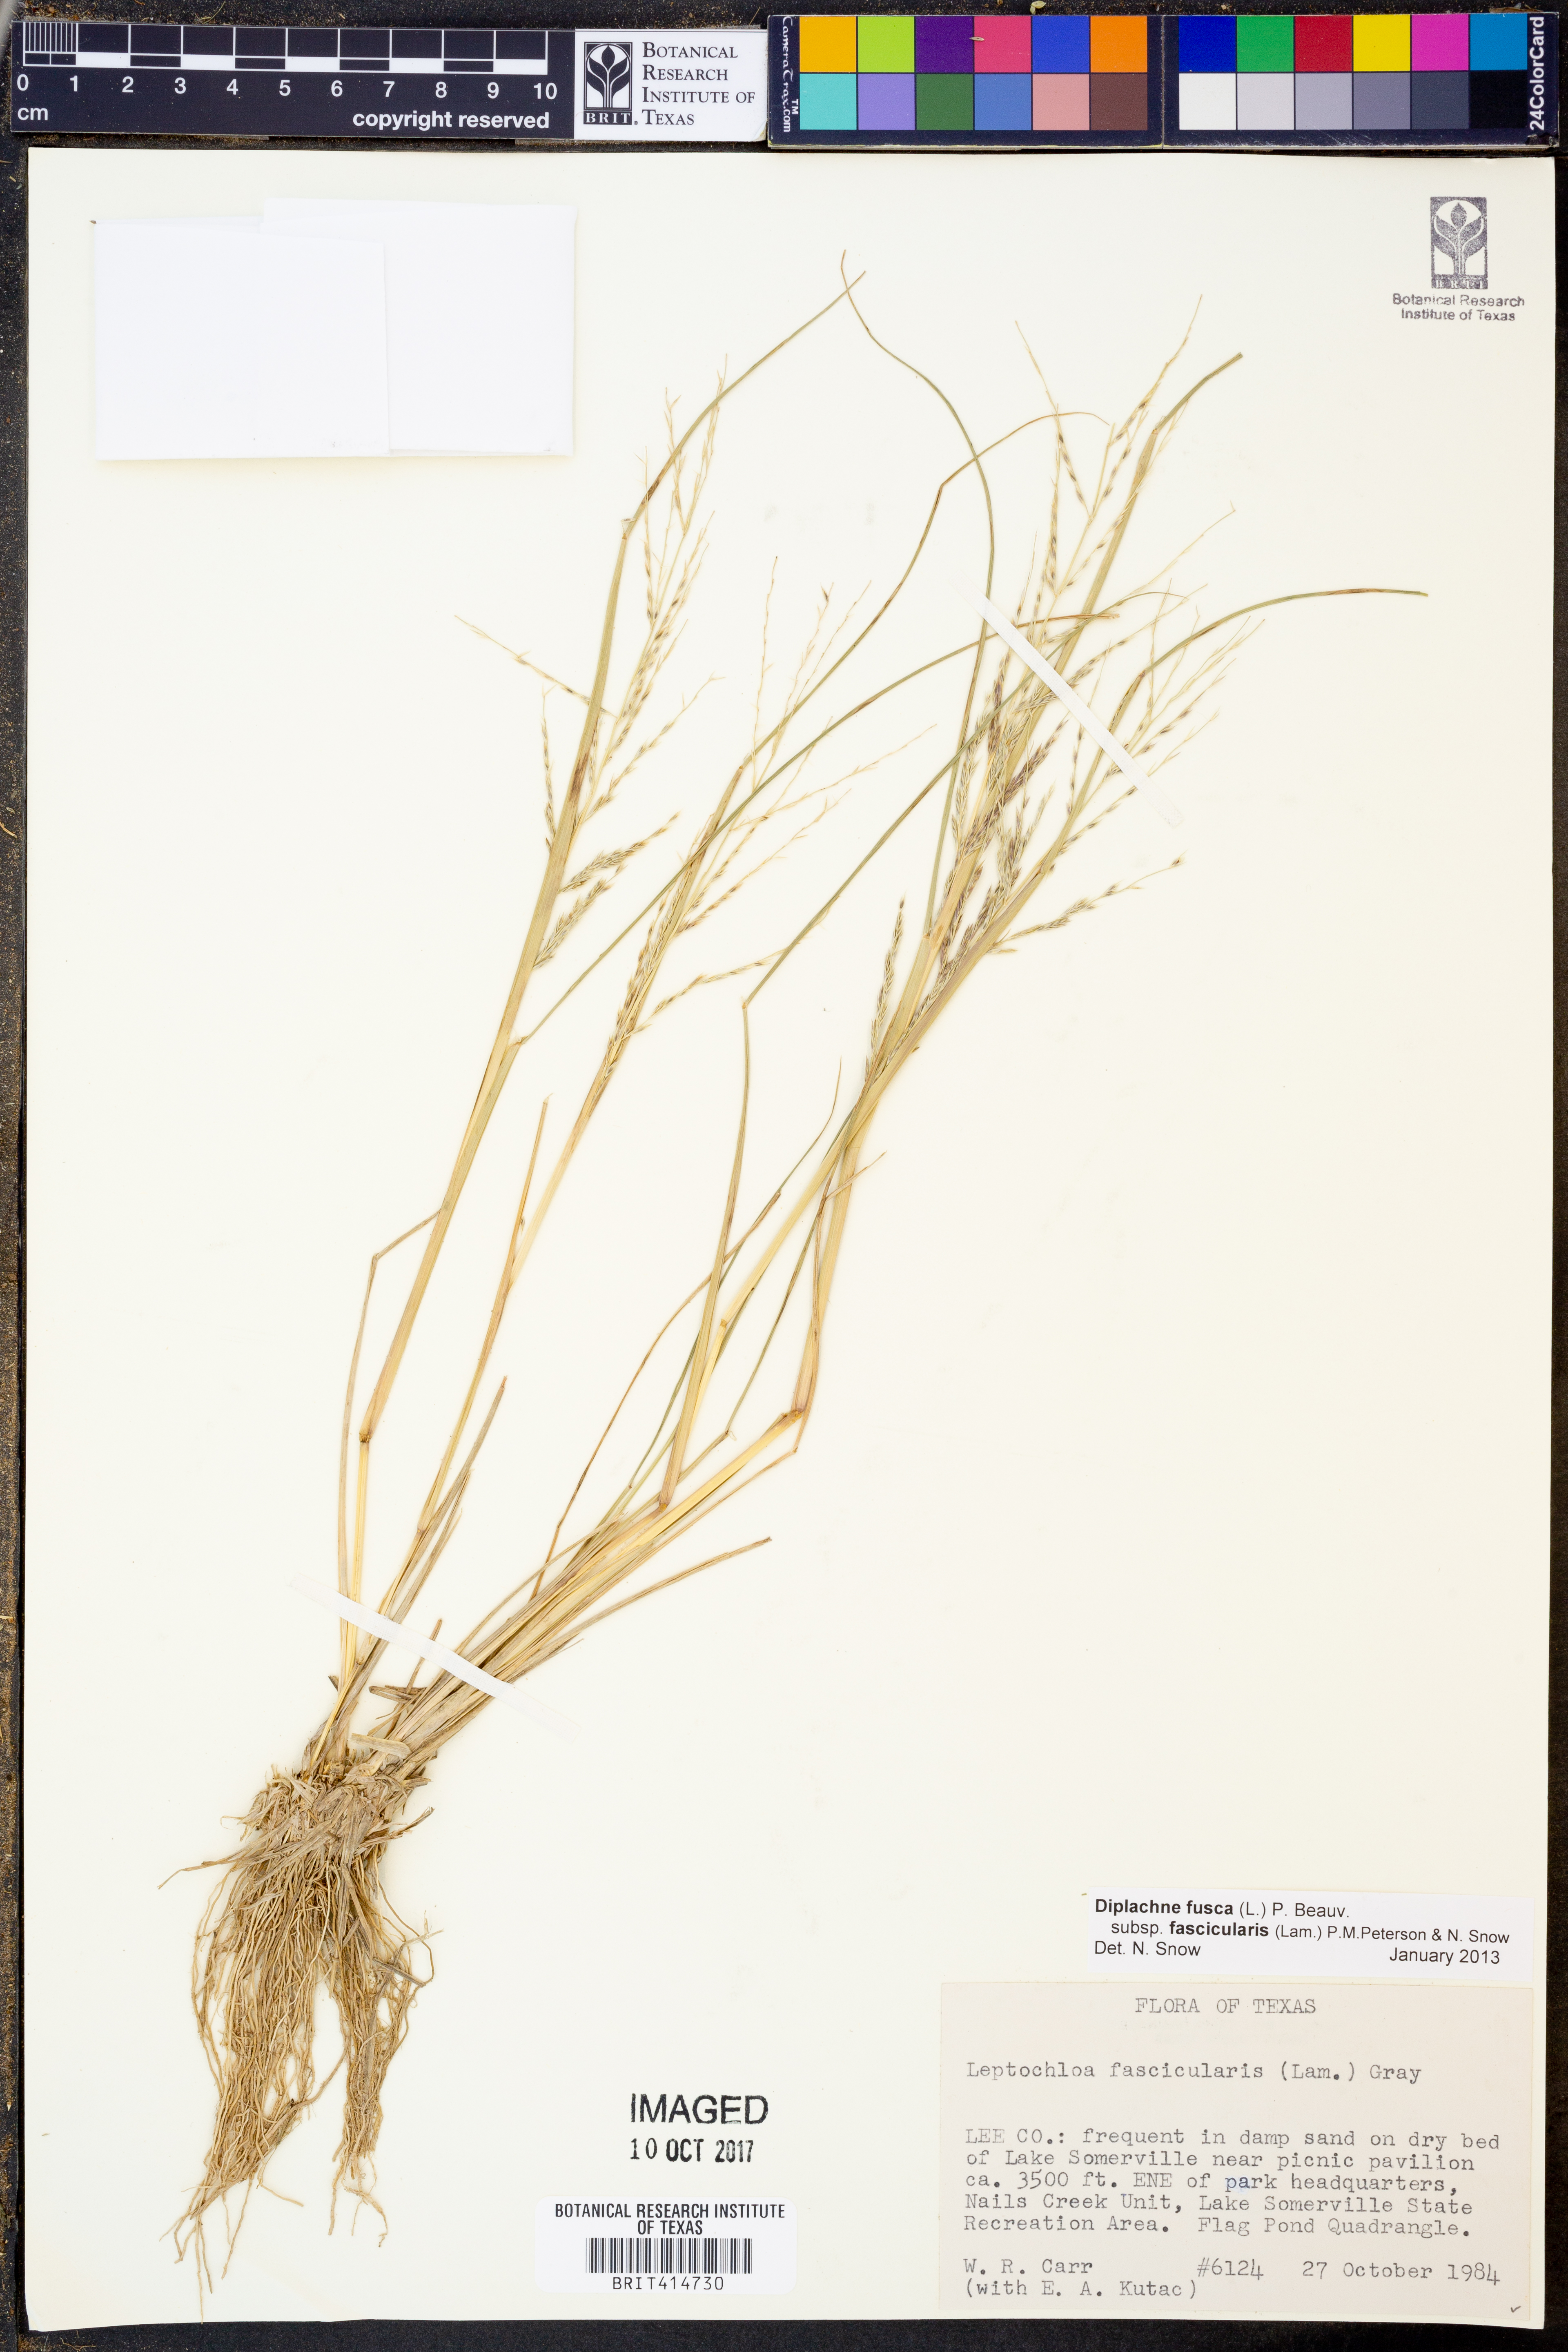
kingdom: Plantae
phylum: Tracheophyta
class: Liliopsida
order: Poales
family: Poaceae
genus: Diplachne
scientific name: Diplachne fusca
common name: Brown beetle grass
